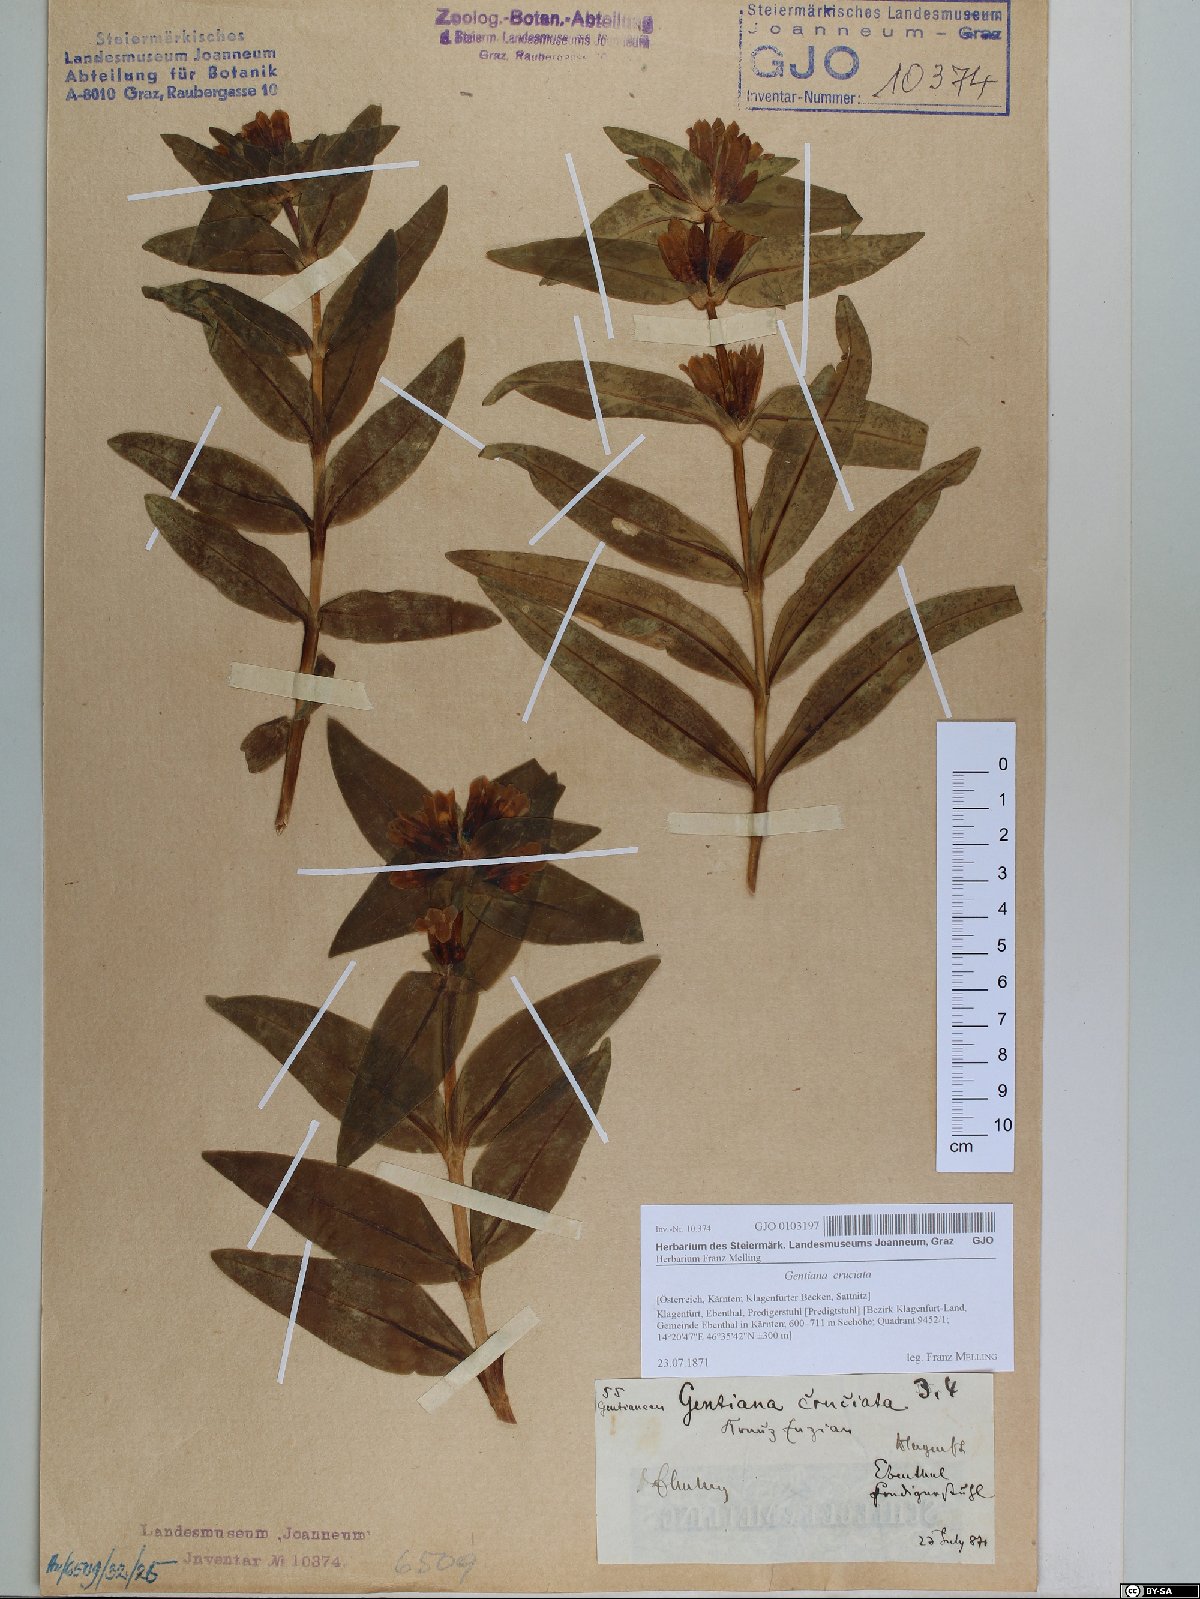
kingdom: Plantae
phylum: Tracheophyta
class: Magnoliopsida
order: Gentianales
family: Gentianaceae
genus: Gentiana
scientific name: Gentiana cruciata
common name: Cross gentian
